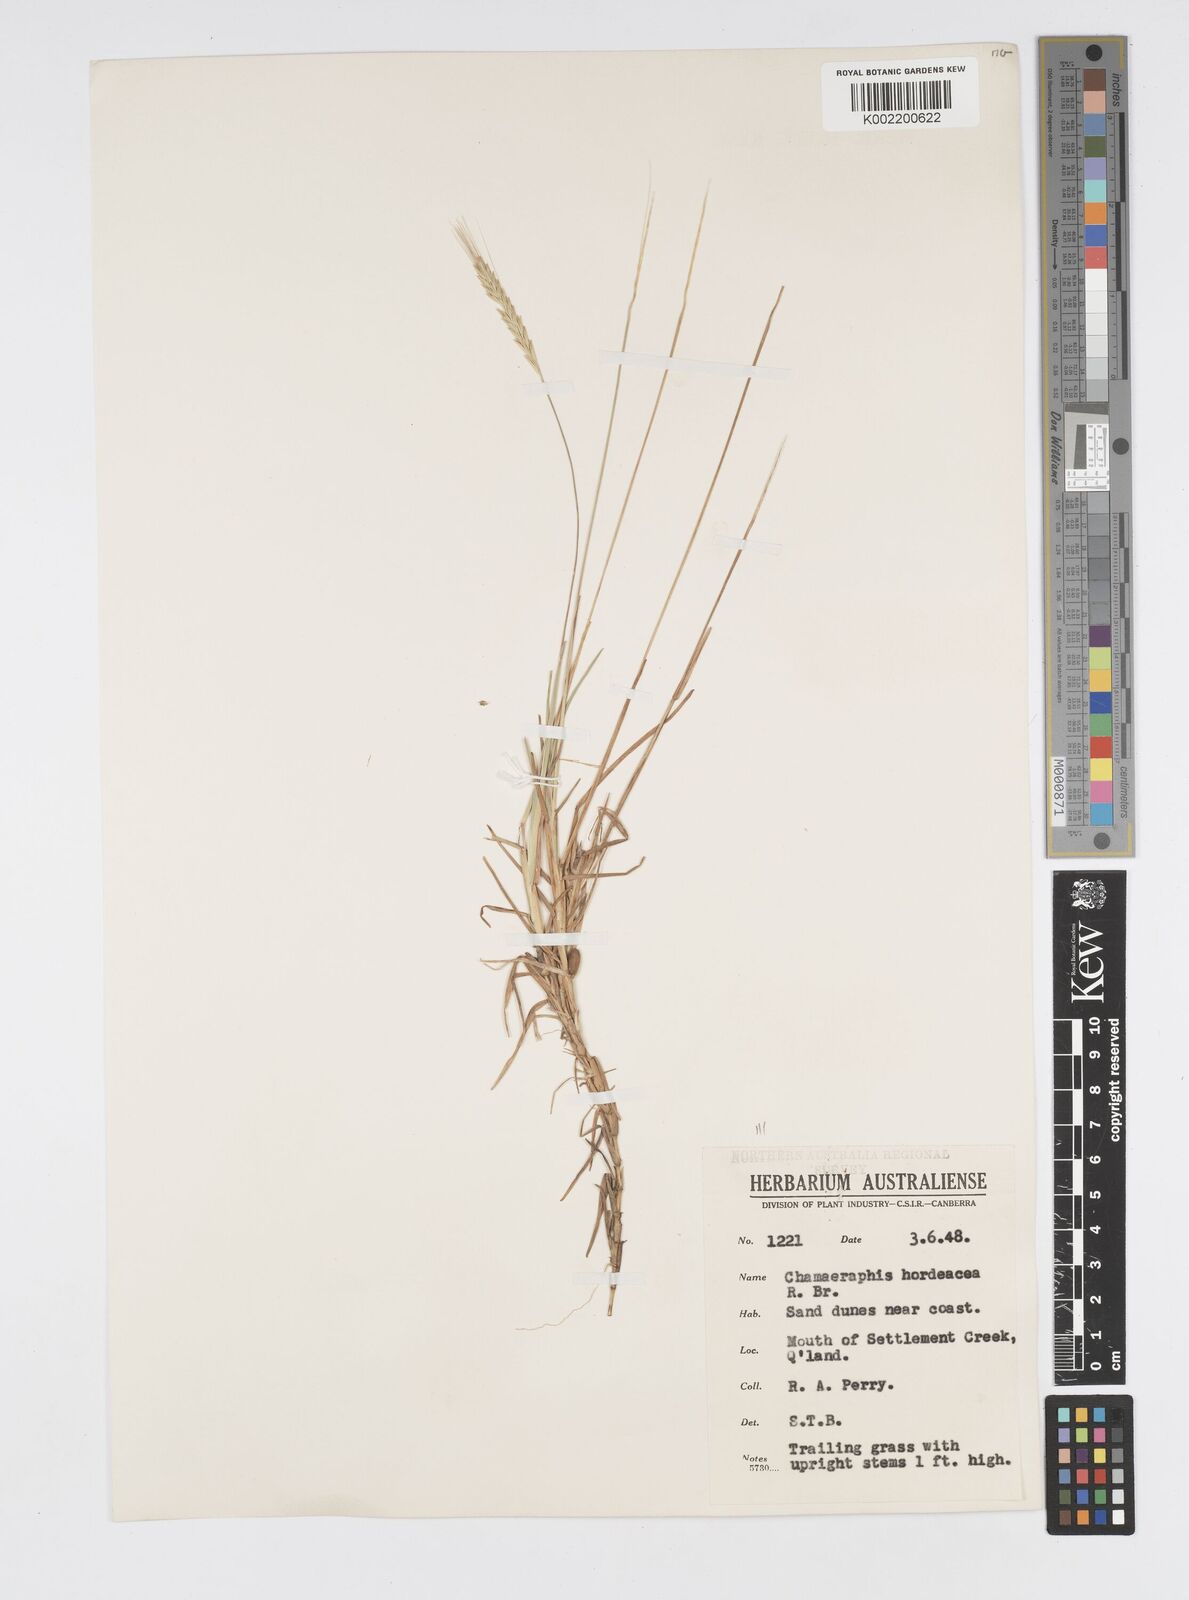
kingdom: Plantae
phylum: Tracheophyta
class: Liliopsida
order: Poales
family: Poaceae
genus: Chamaeraphis
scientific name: Chamaeraphis hordeacea
